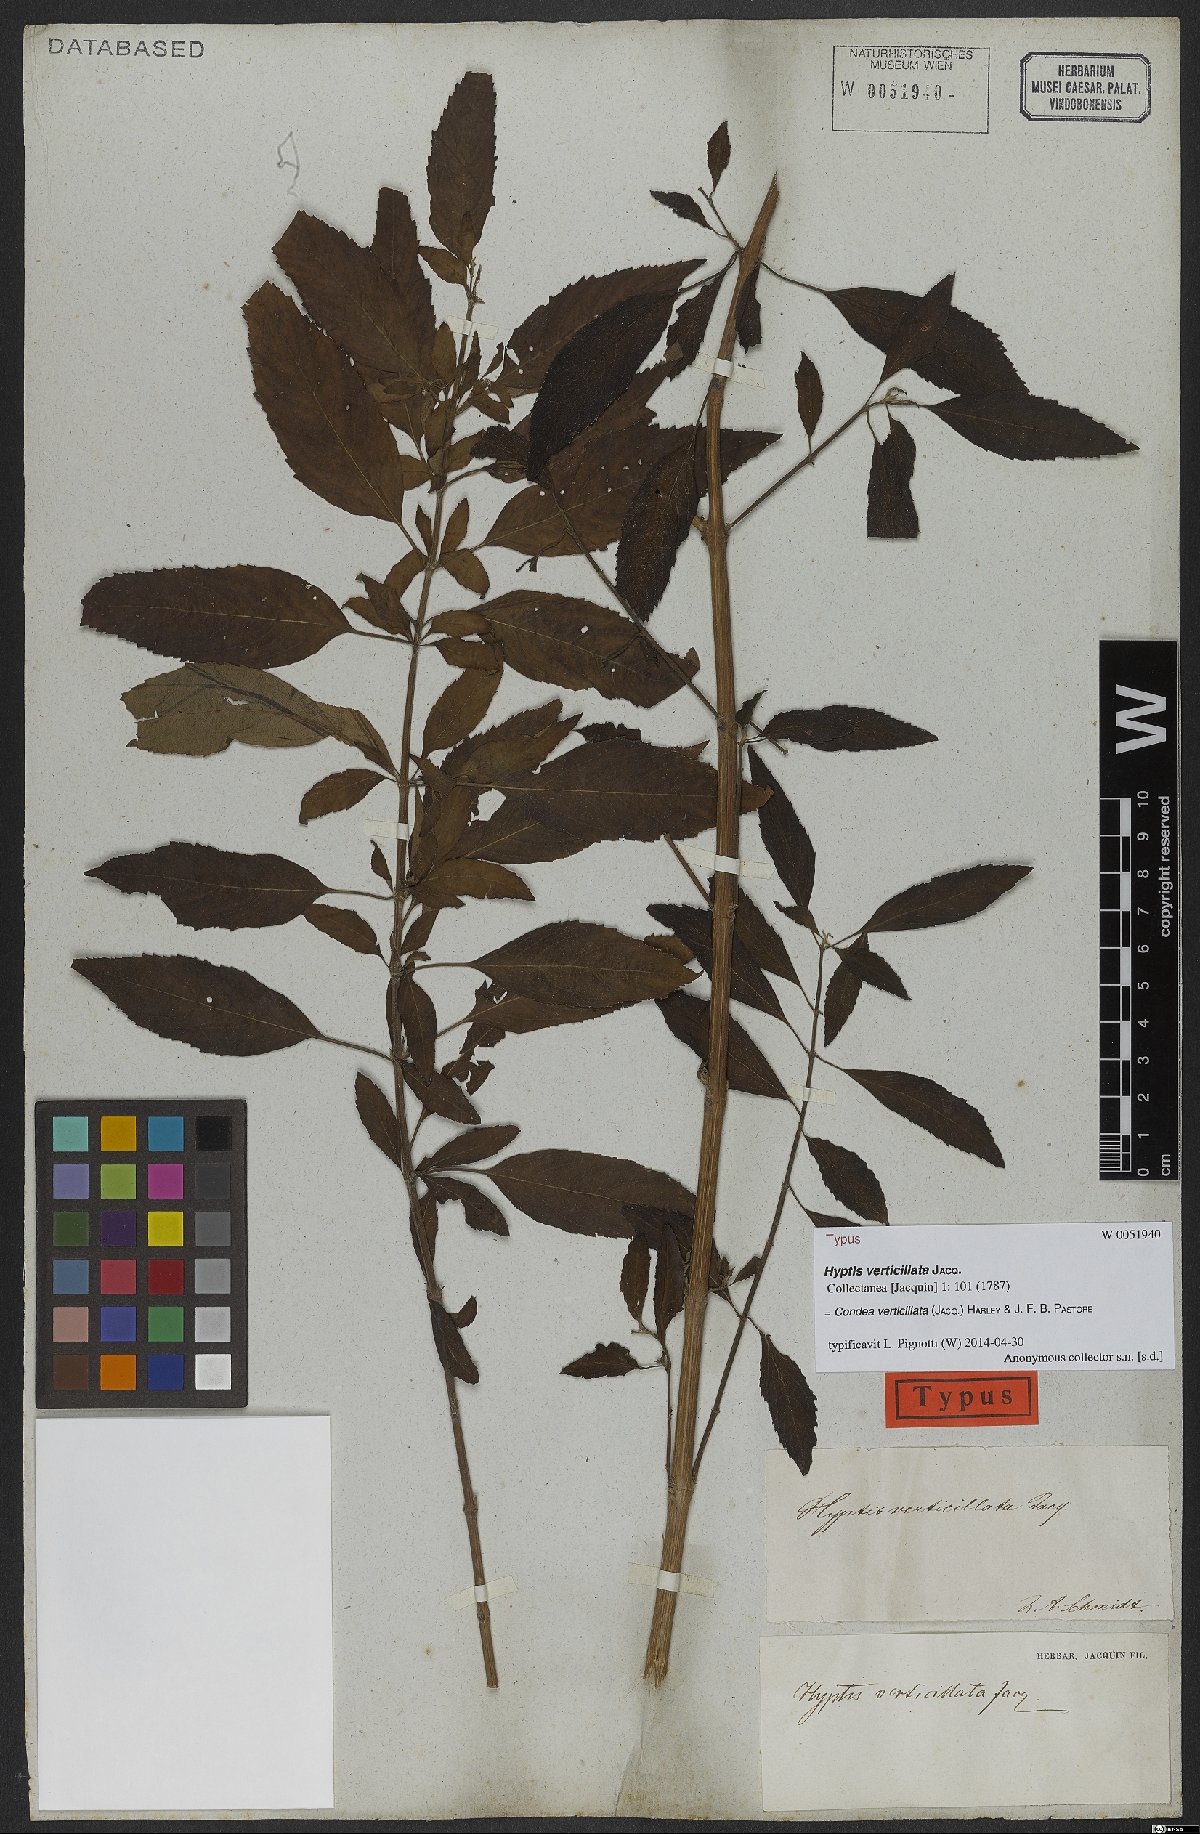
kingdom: Plantae
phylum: Tracheophyta
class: Magnoliopsida
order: Lamiales
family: Lamiaceae
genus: Condea
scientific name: Condea verticillata
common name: John charles
